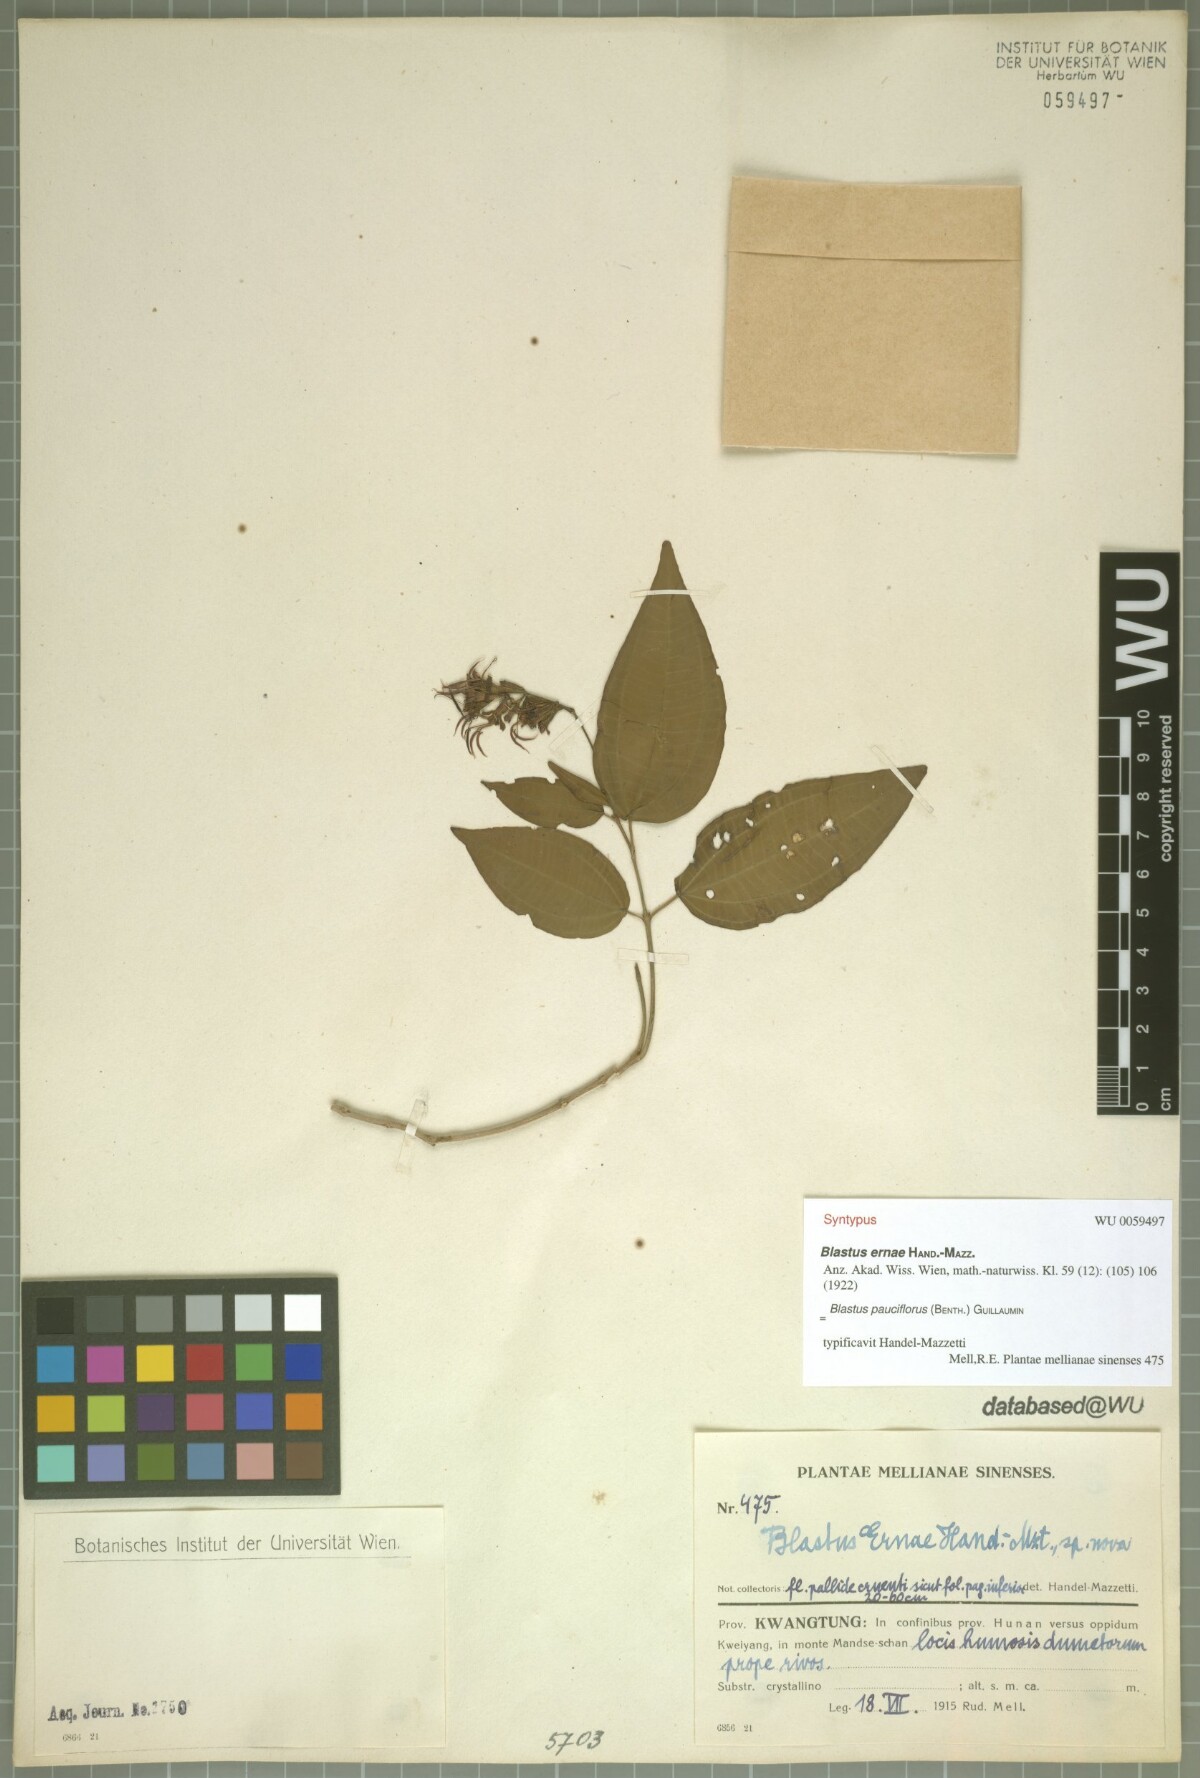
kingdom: Plantae
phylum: Tracheophyta
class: Magnoliopsida
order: Myrtales
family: Melastomataceae
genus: Blastus
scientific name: Blastus pauciflorus
